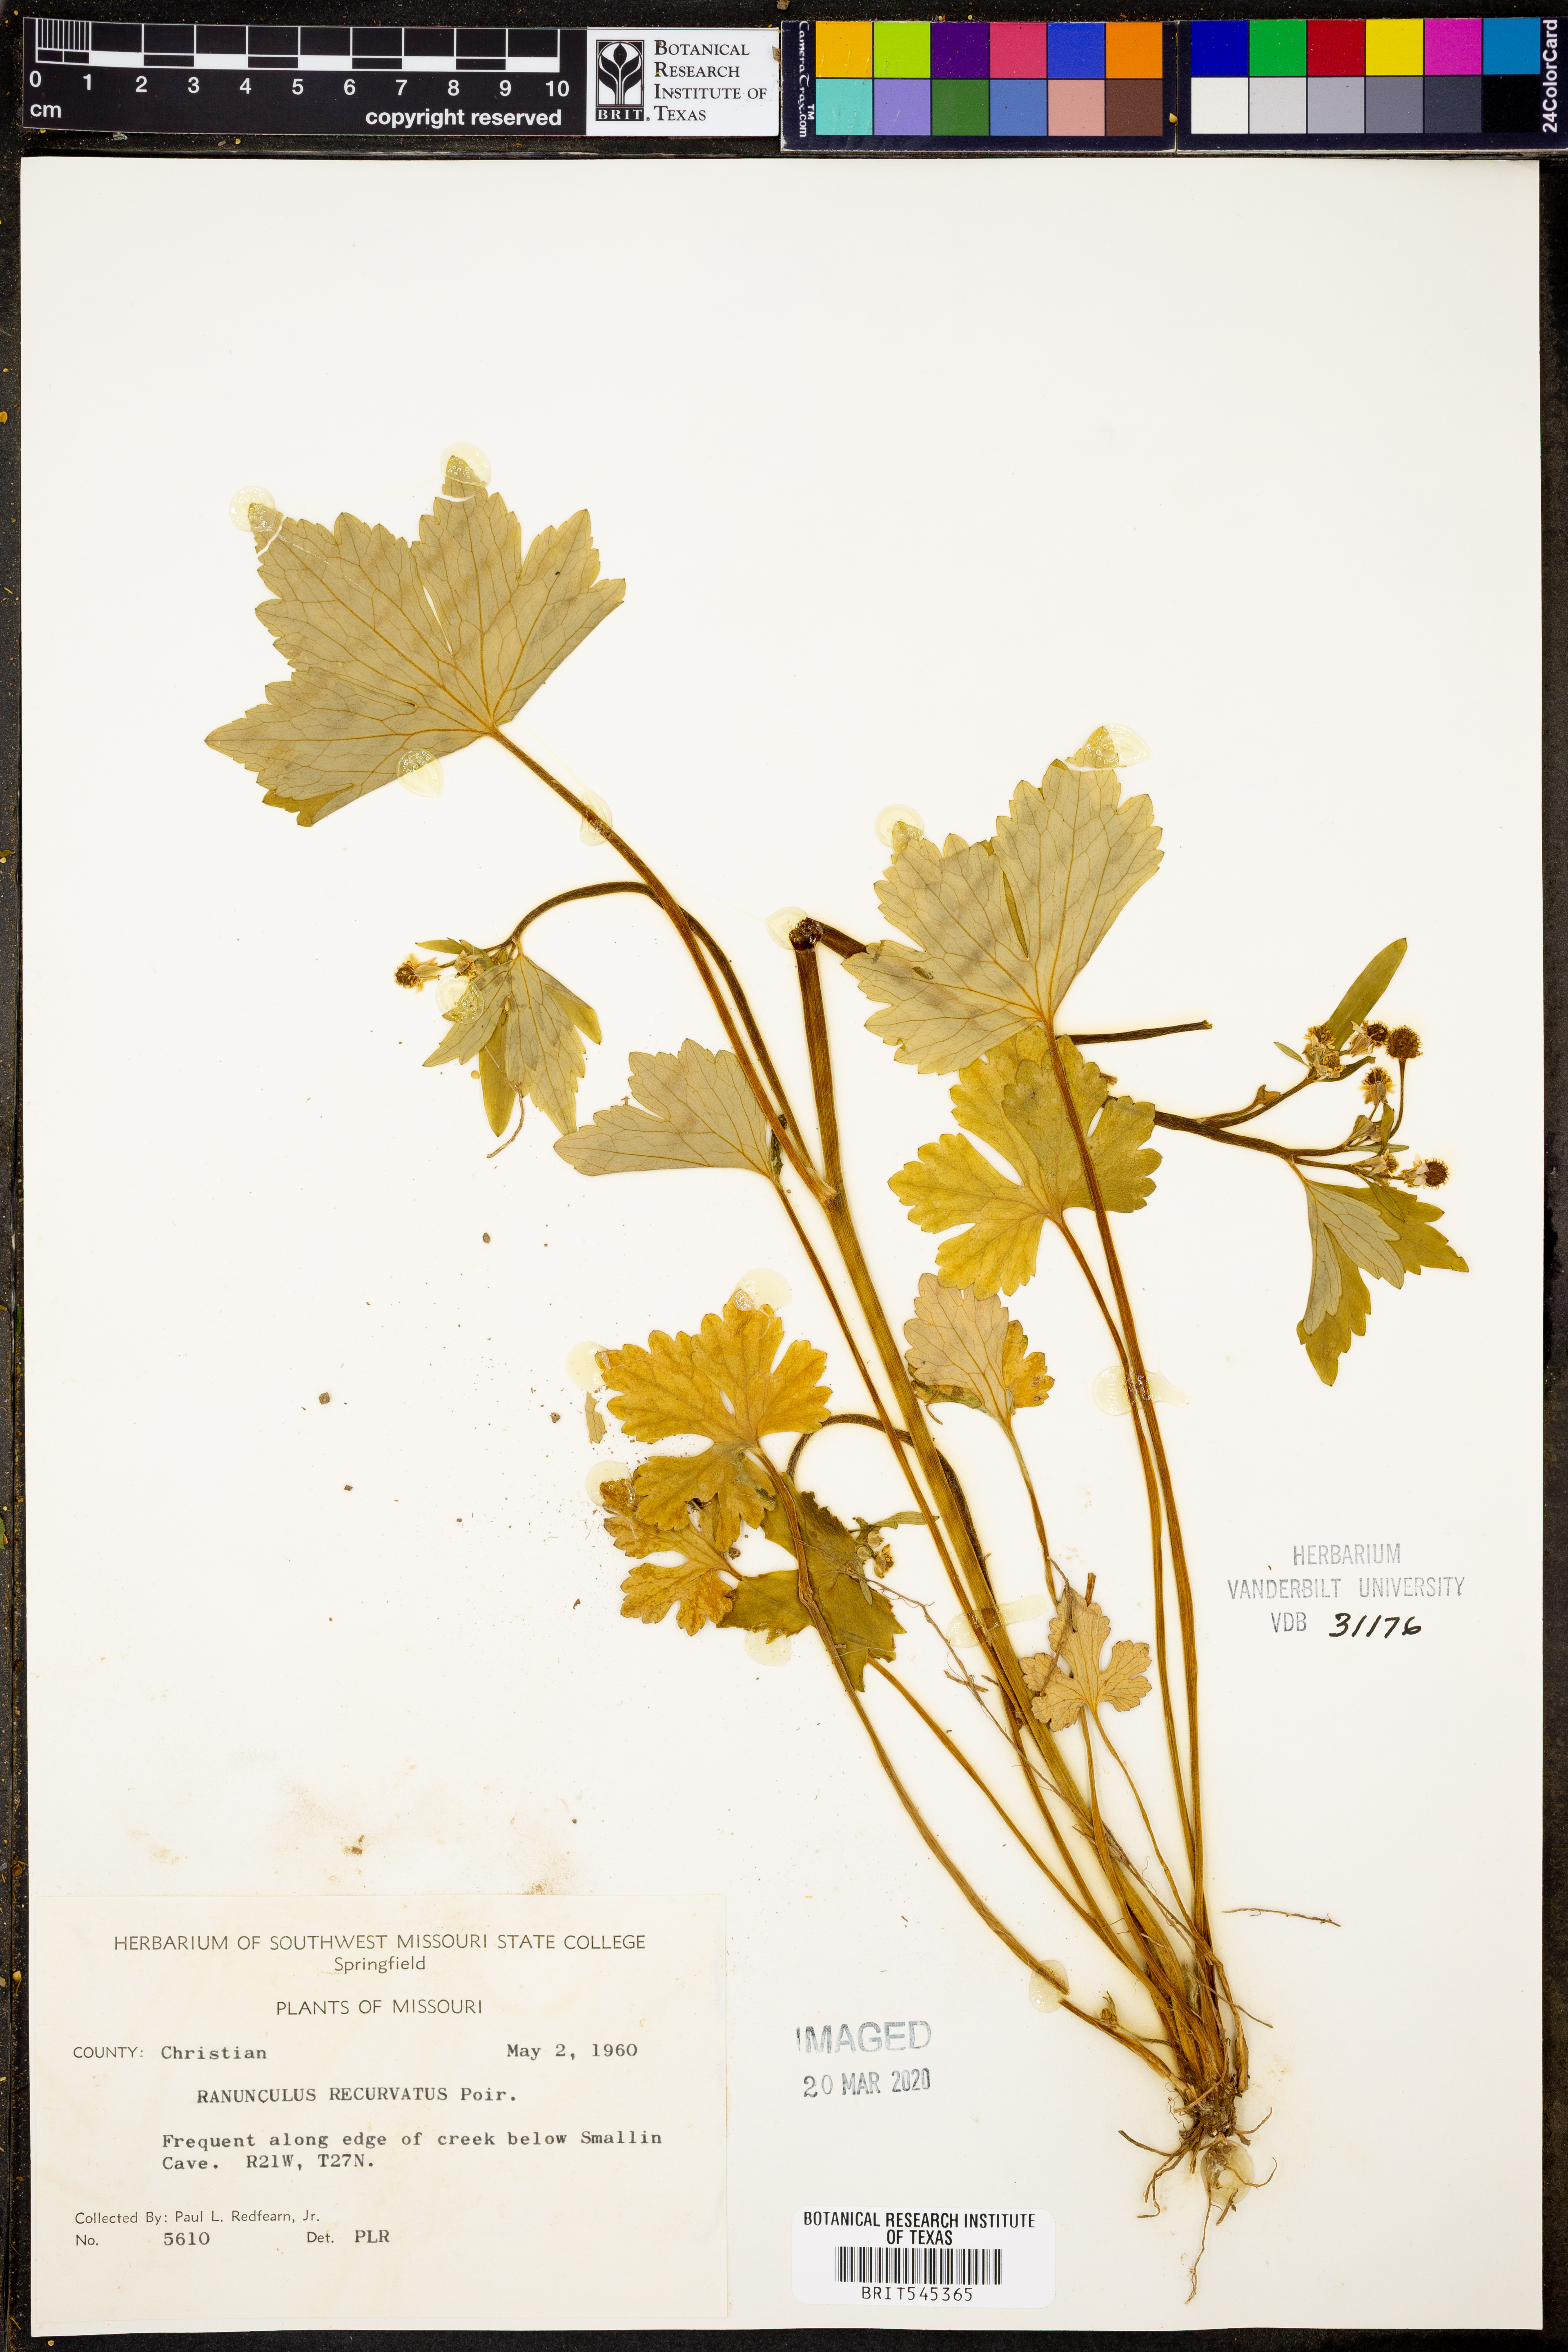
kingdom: Plantae
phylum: Tracheophyta
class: Magnoliopsida
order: Ranunculales
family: Ranunculaceae
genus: Ranunculus
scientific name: Ranunculus recurvatus
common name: Blisterwort
